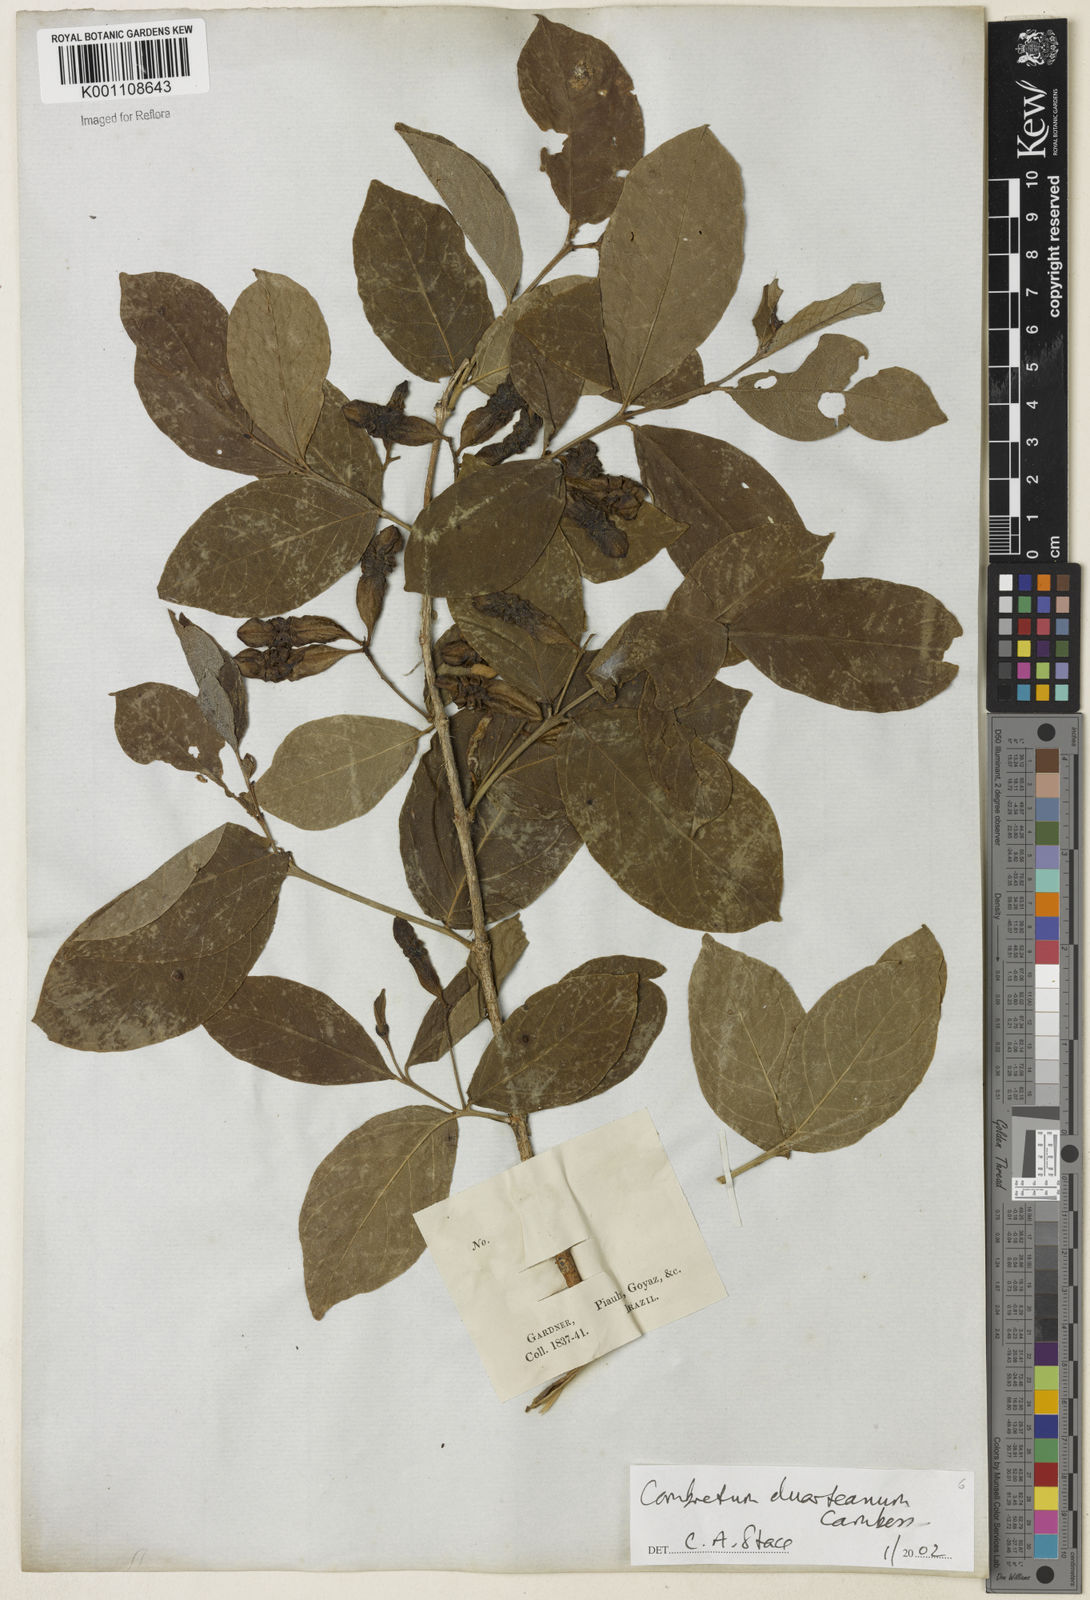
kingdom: Plantae
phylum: Tracheophyta
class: Magnoliopsida
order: Myrtales
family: Combretaceae
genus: Combretum
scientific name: Combretum duarteanum
